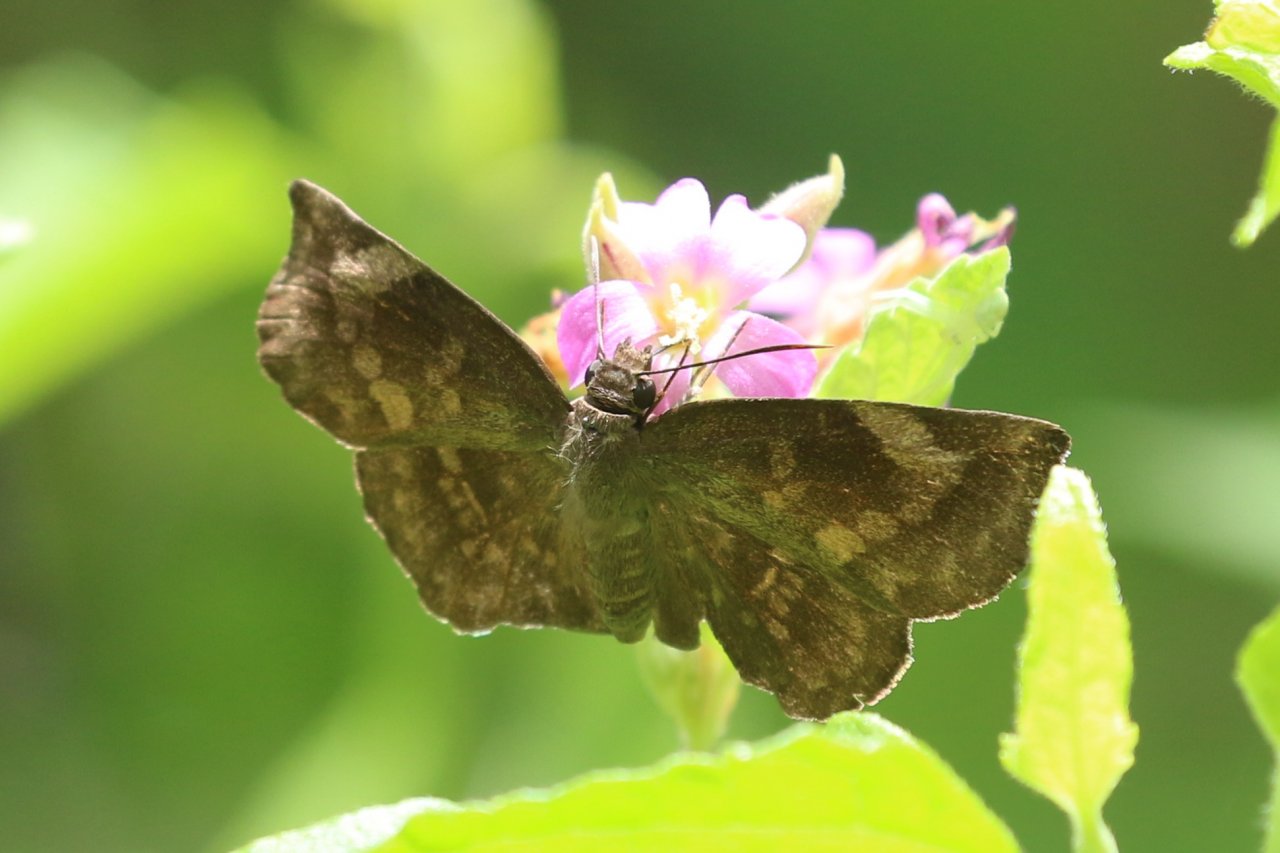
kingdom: Animalia
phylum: Arthropoda
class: Insecta
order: Lepidoptera
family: Hesperiidae
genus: Achlyodes
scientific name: Achlyodes thraso
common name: Sickle-winged Skipper
